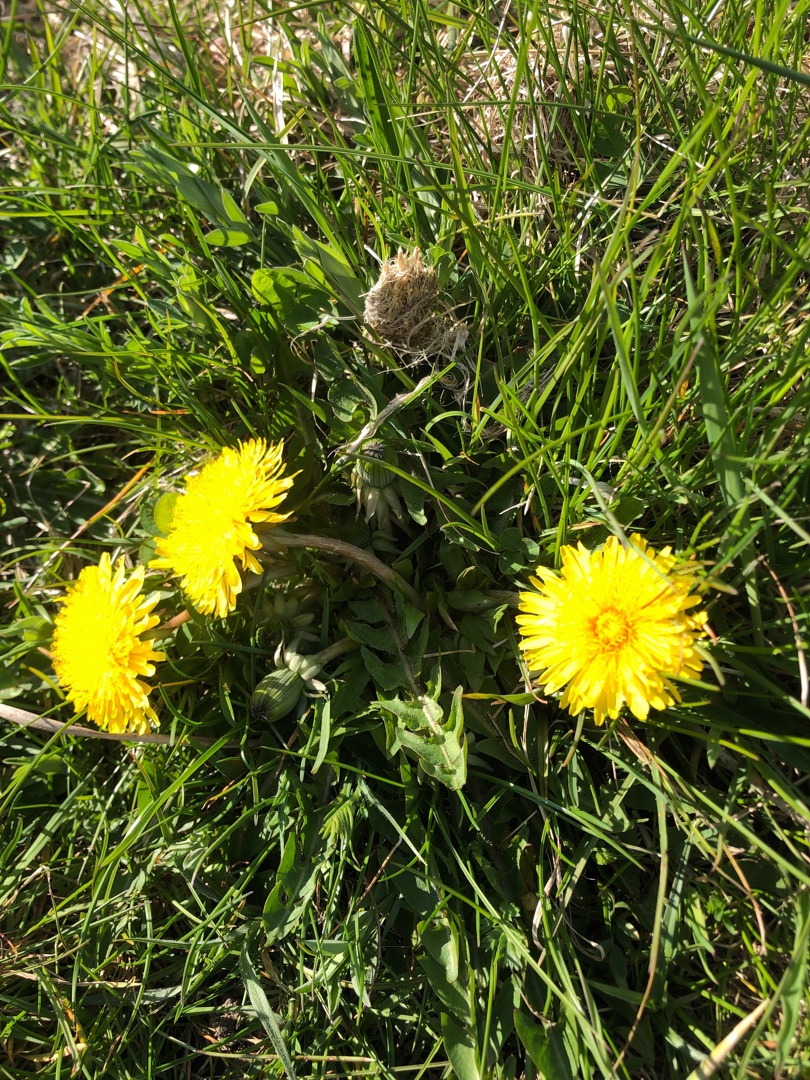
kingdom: Plantae
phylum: Tracheophyta
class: Magnoliopsida
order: Asterales
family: Asteraceae
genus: Taraxacum
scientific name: Taraxacum
